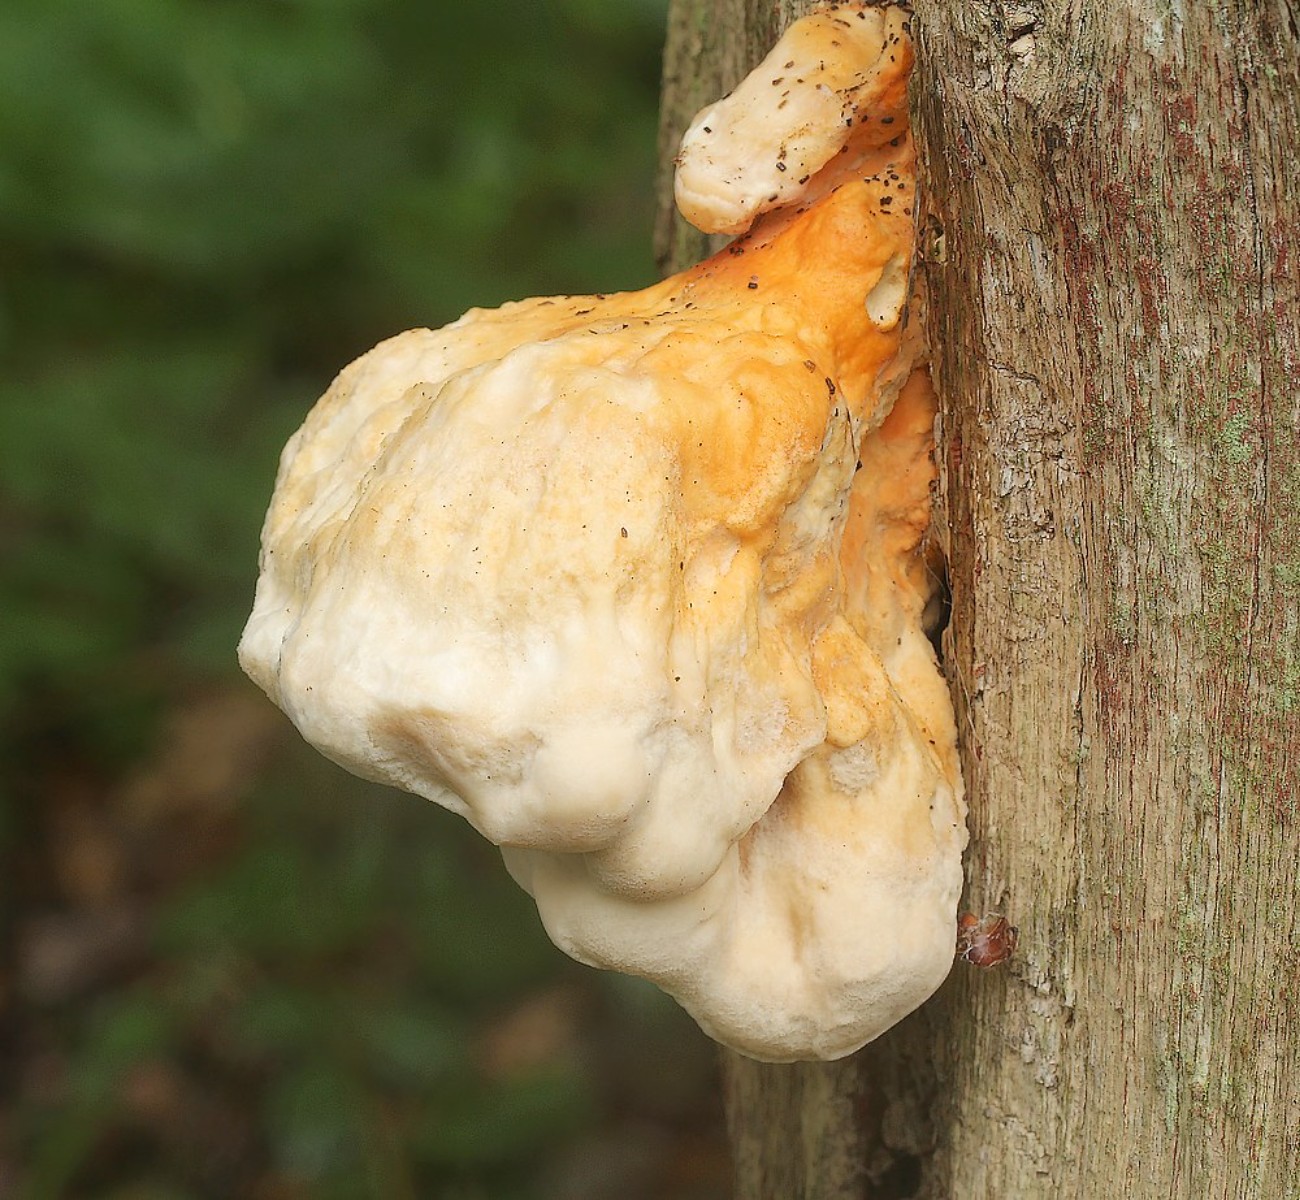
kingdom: Fungi
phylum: Basidiomycota
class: Agaricomycetes
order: Polyporales
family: Laetiporaceae
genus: Laetiporus
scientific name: Laetiporus sulphureus
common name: svovlporesvamp
